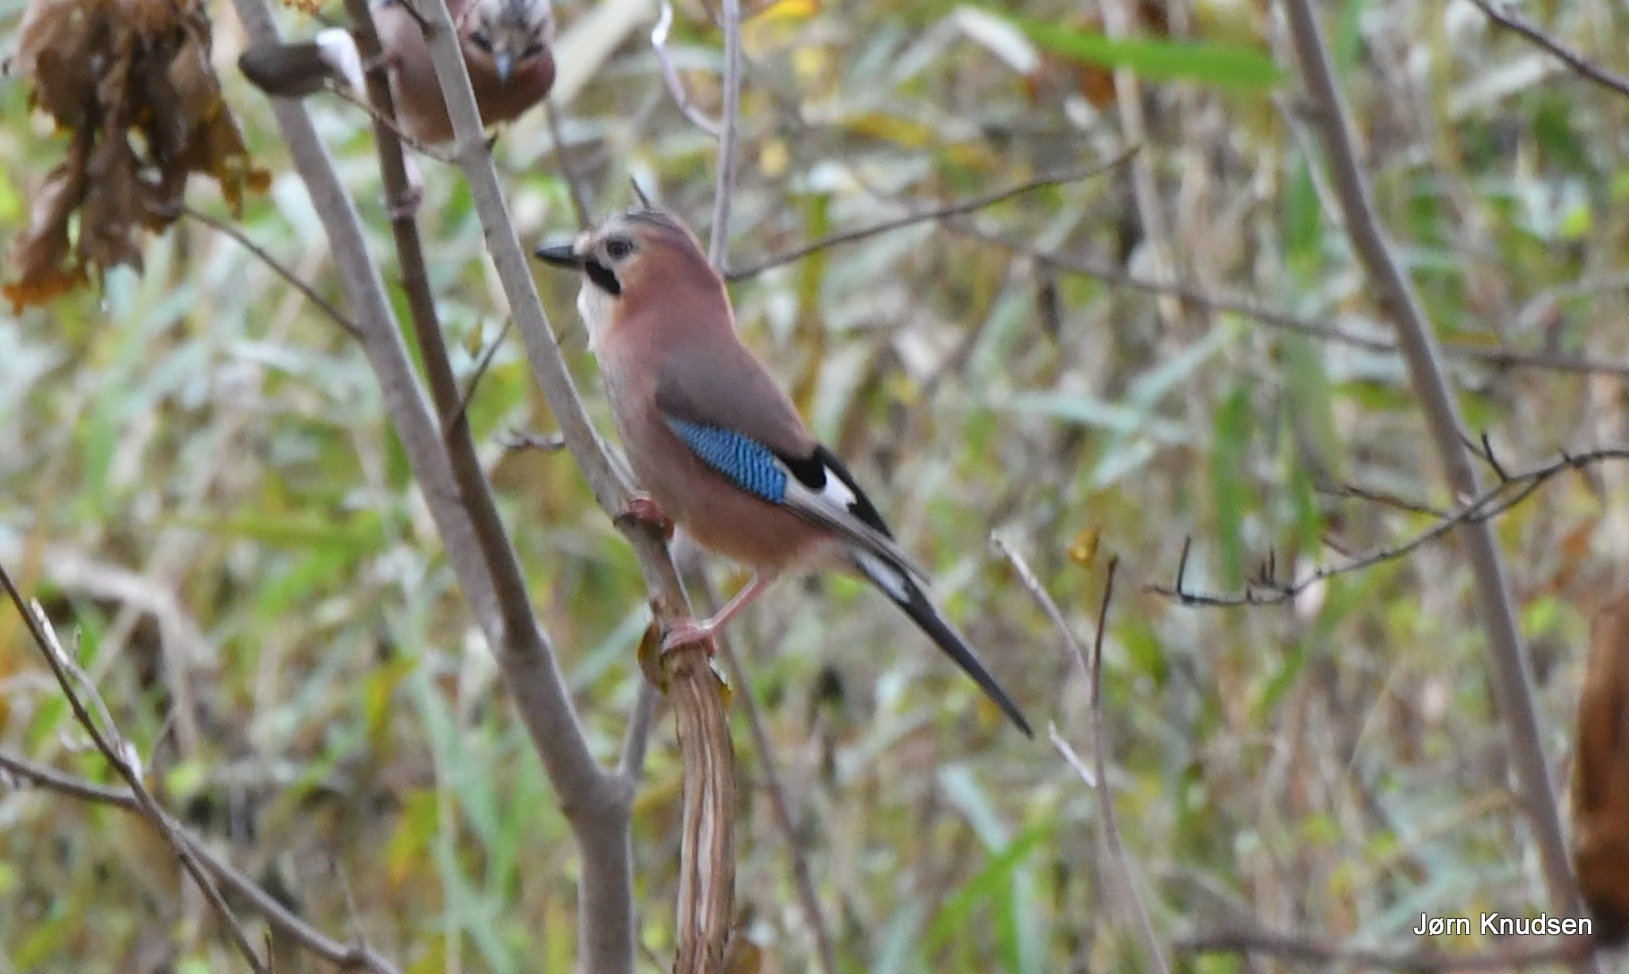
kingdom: Animalia
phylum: Chordata
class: Aves
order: Passeriformes
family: Corvidae
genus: Garrulus
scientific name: Garrulus glandarius
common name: Skovskade
